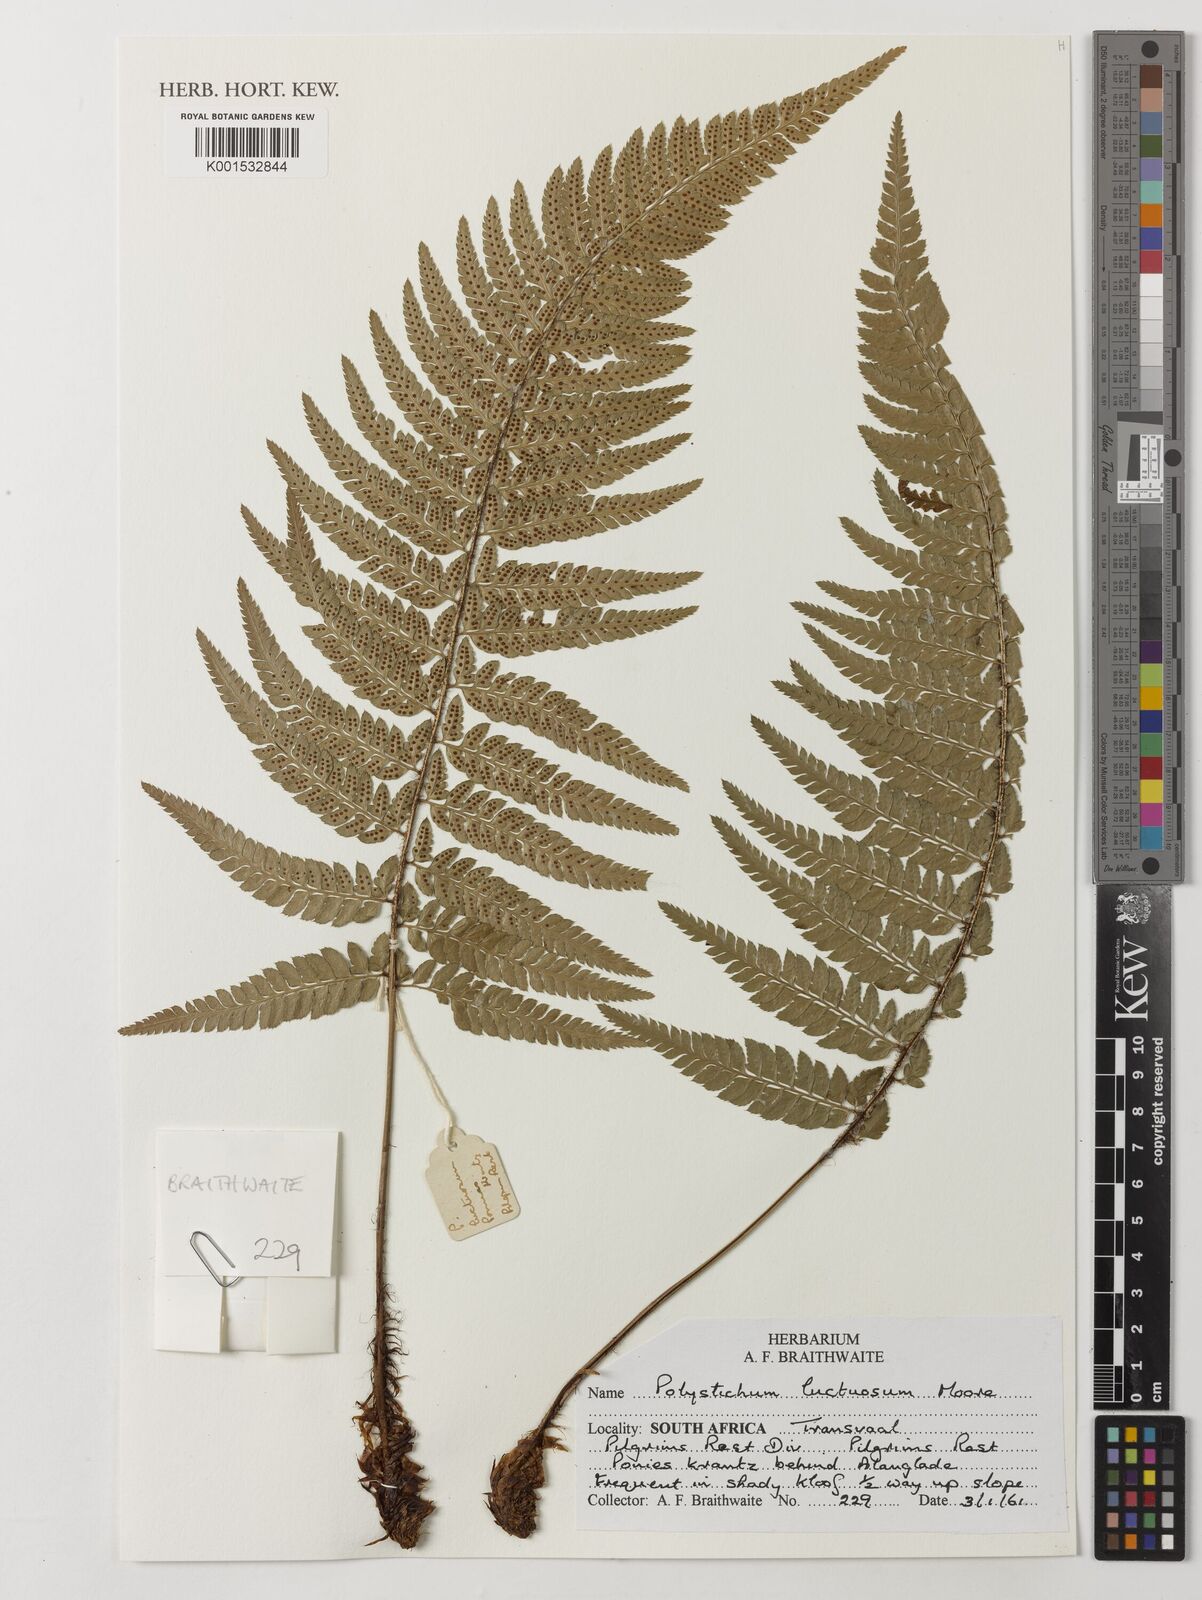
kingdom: Plantae
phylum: Tracheophyta
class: Polypodiopsida
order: Polypodiales
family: Dryopteridaceae
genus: Polystichum
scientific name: Polystichum luctuosum
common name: Korean rockfern
